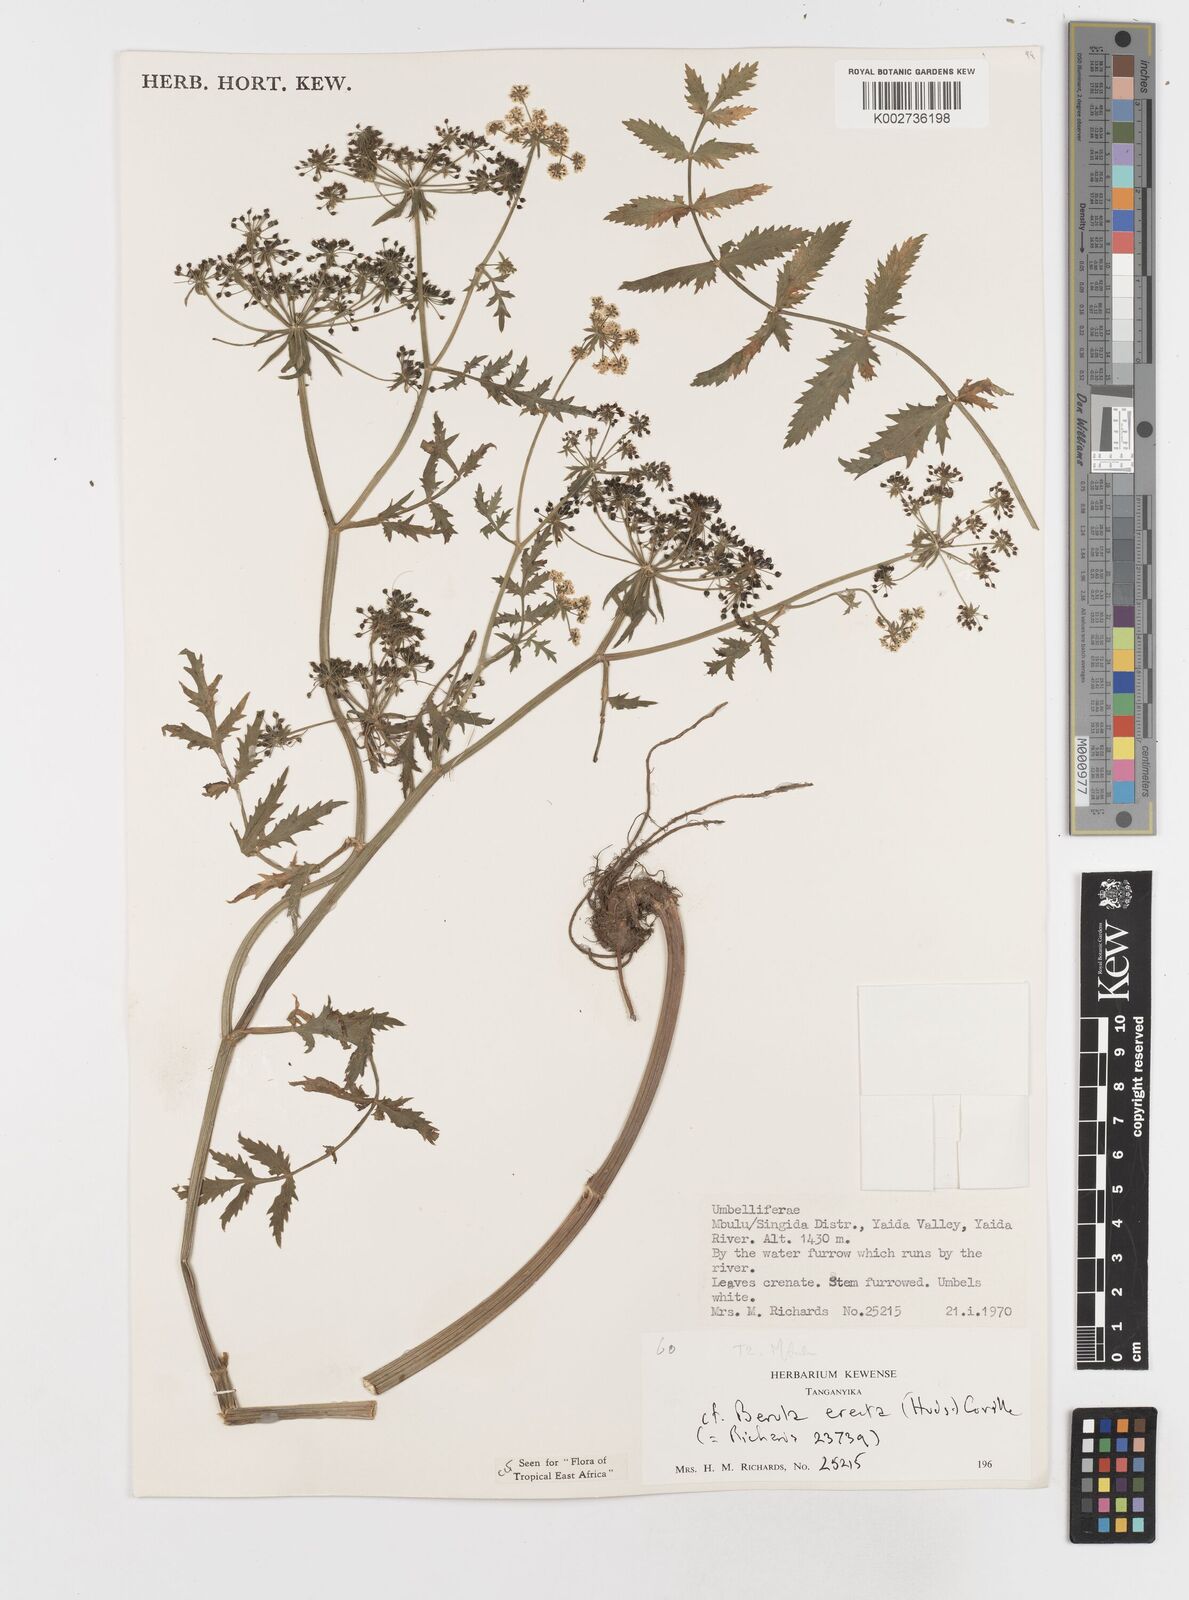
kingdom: Plantae
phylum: Tracheophyta
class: Magnoliopsida
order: Apiales
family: Apiaceae
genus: Berula
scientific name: Berula erecta
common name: Lesser water-parsnip
